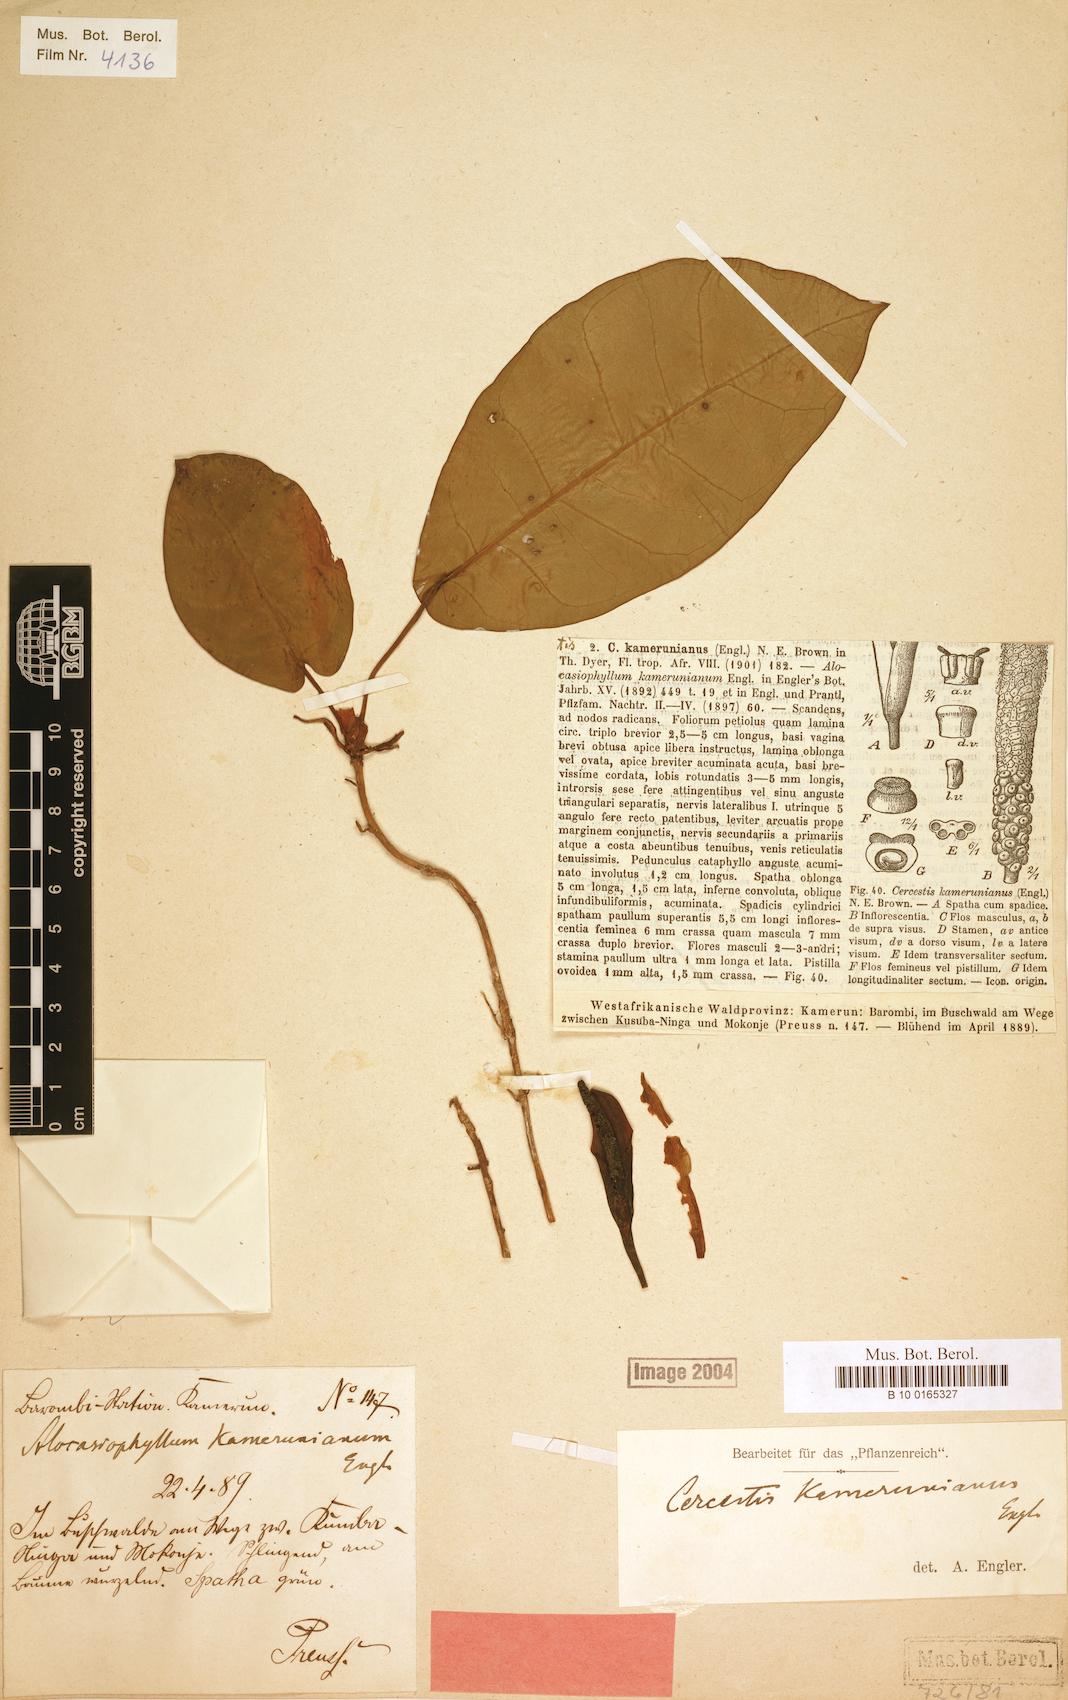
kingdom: Plantae
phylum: Tracheophyta
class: Liliopsida
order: Alismatales
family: Araceae
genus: Cercestis
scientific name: Cercestis kamerunianus
